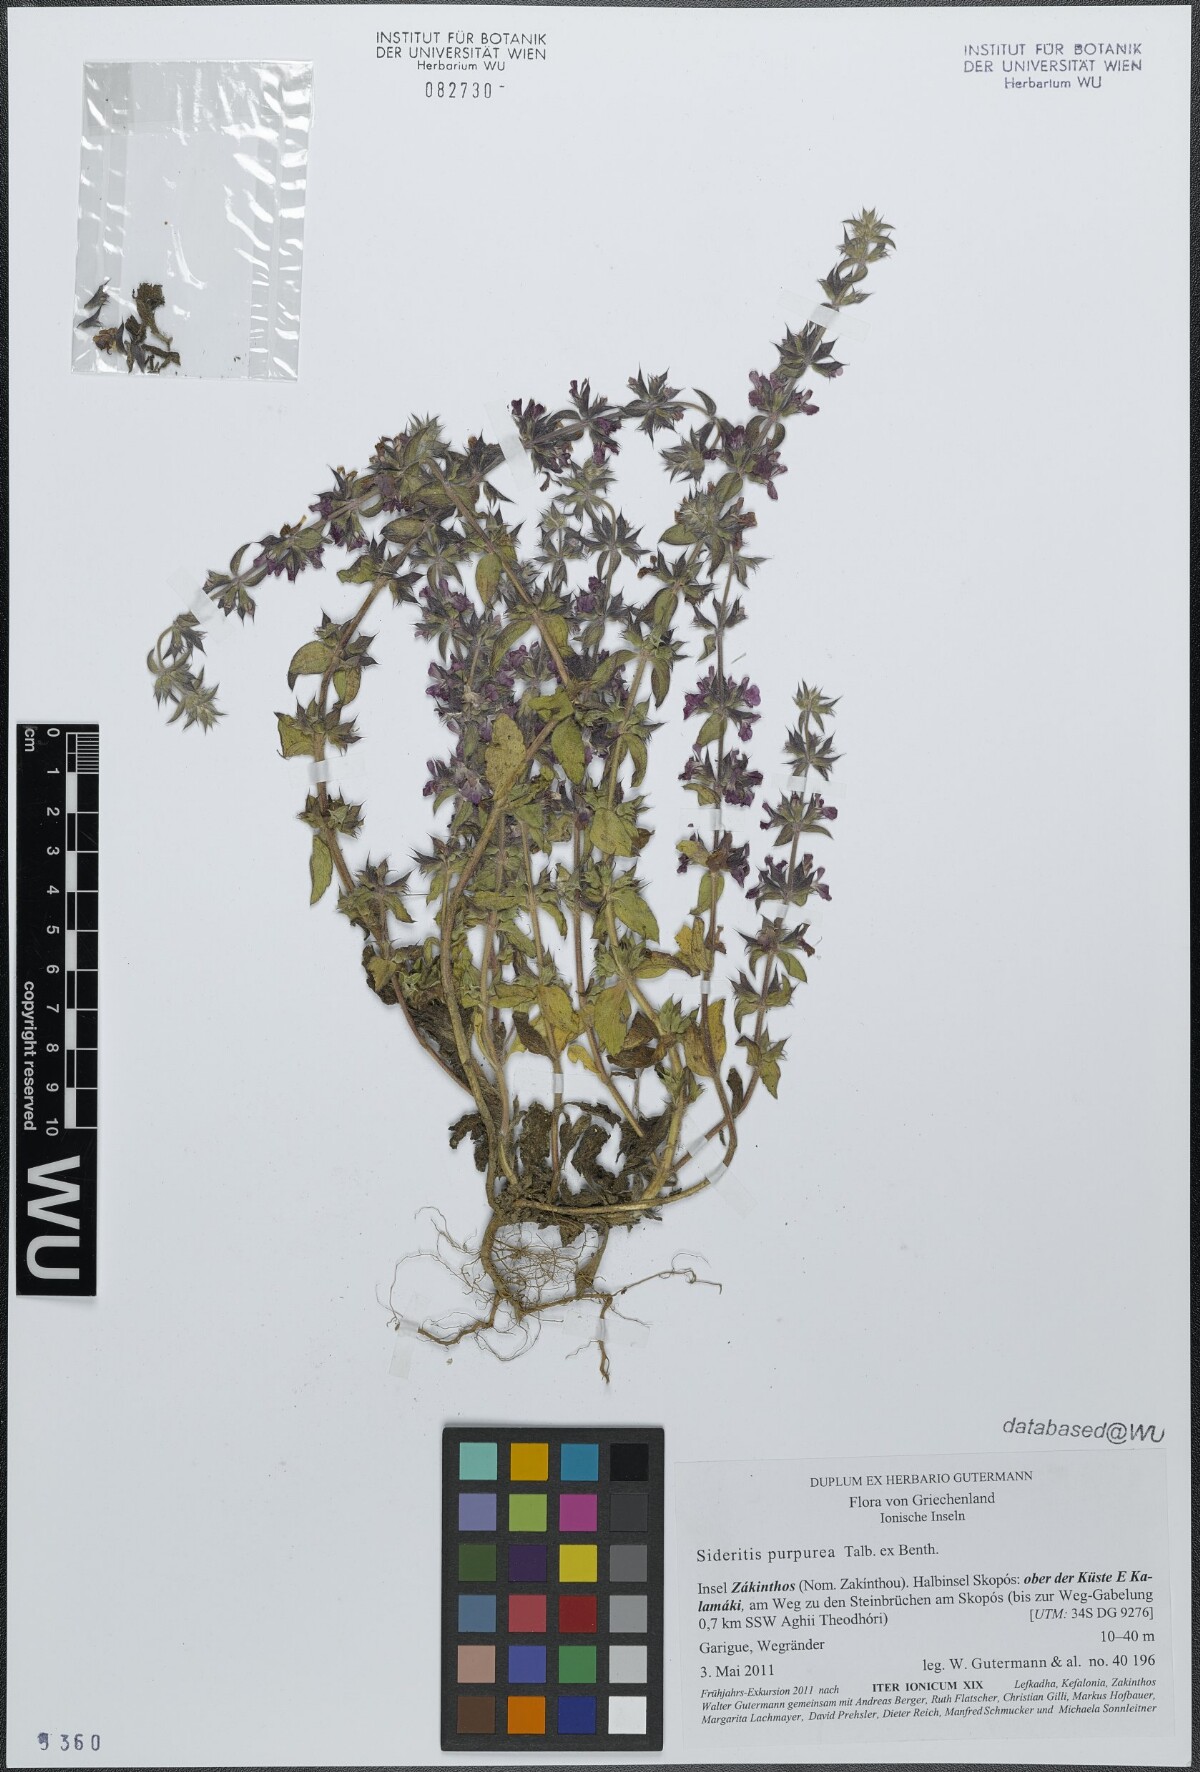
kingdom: Plantae
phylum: Tracheophyta
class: Magnoliopsida
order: Lamiales
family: Lamiaceae
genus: Sideritis
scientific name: Sideritis romana
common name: Simplebeak ironwort
